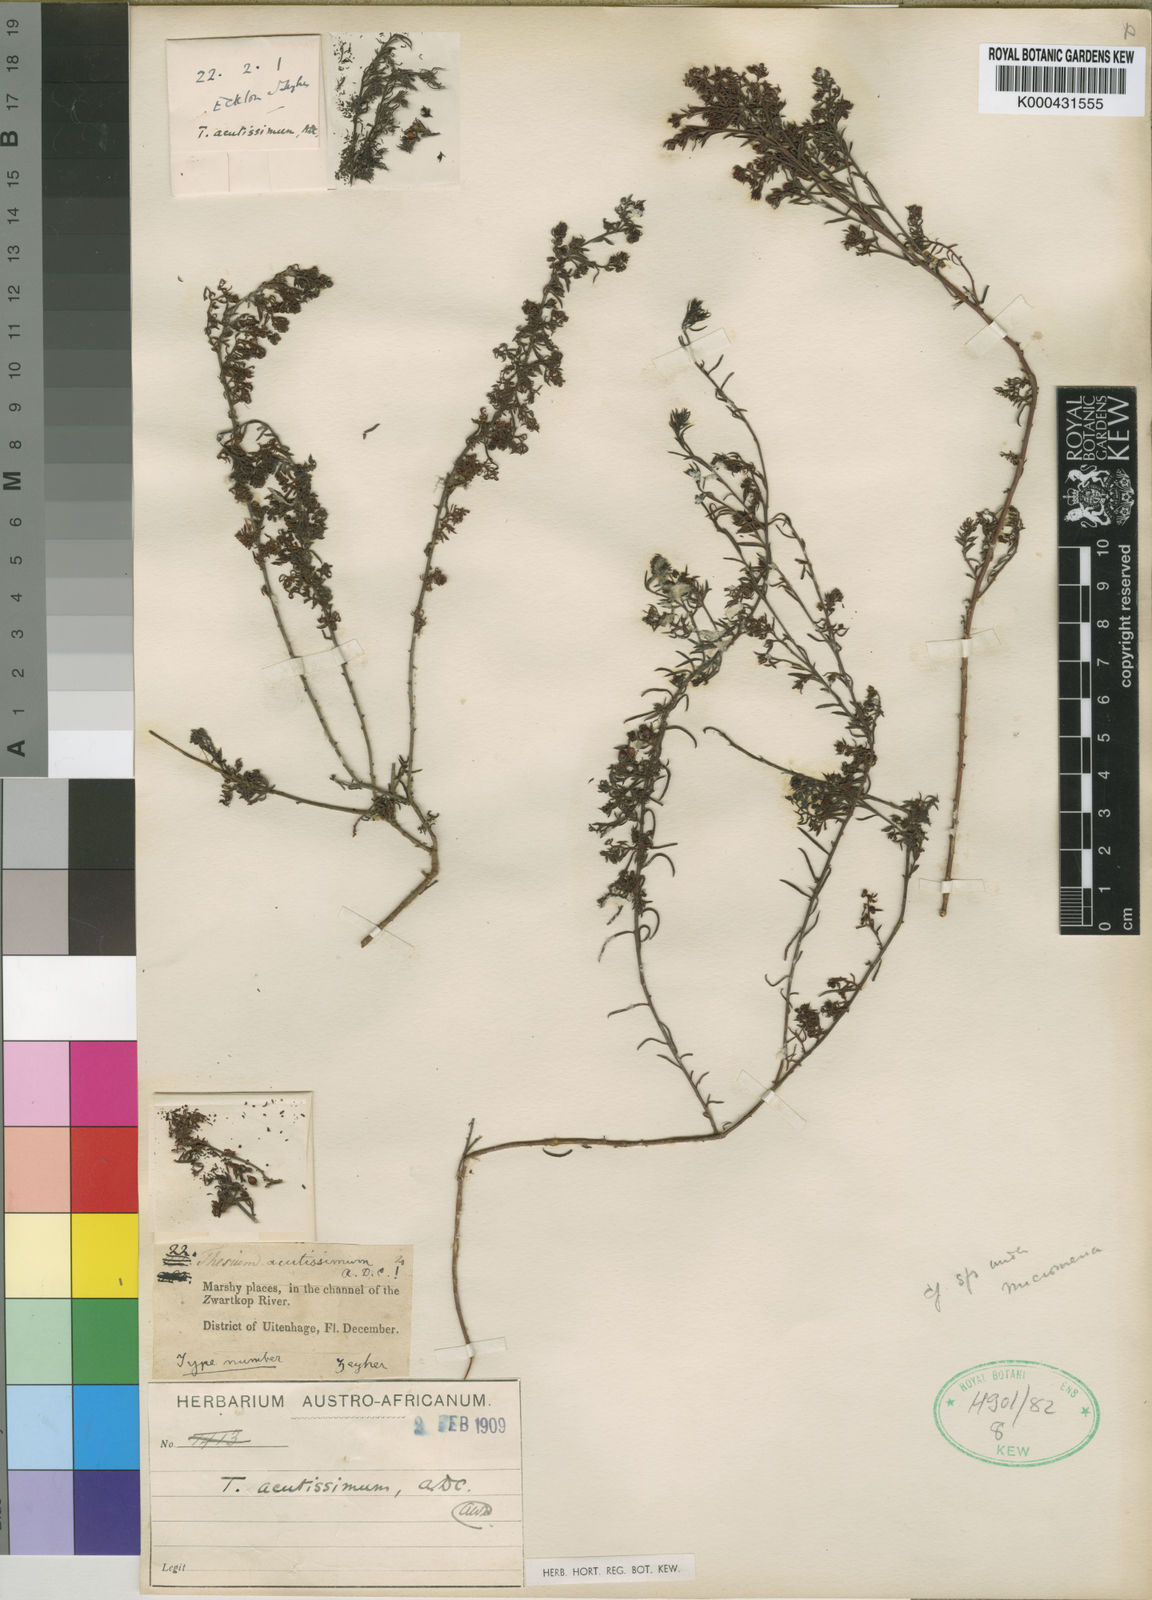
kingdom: Plantae
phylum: Tracheophyta
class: Magnoliopsida
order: Santalales
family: Thesiaceae
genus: Thesium
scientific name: Thesium acutissimum
